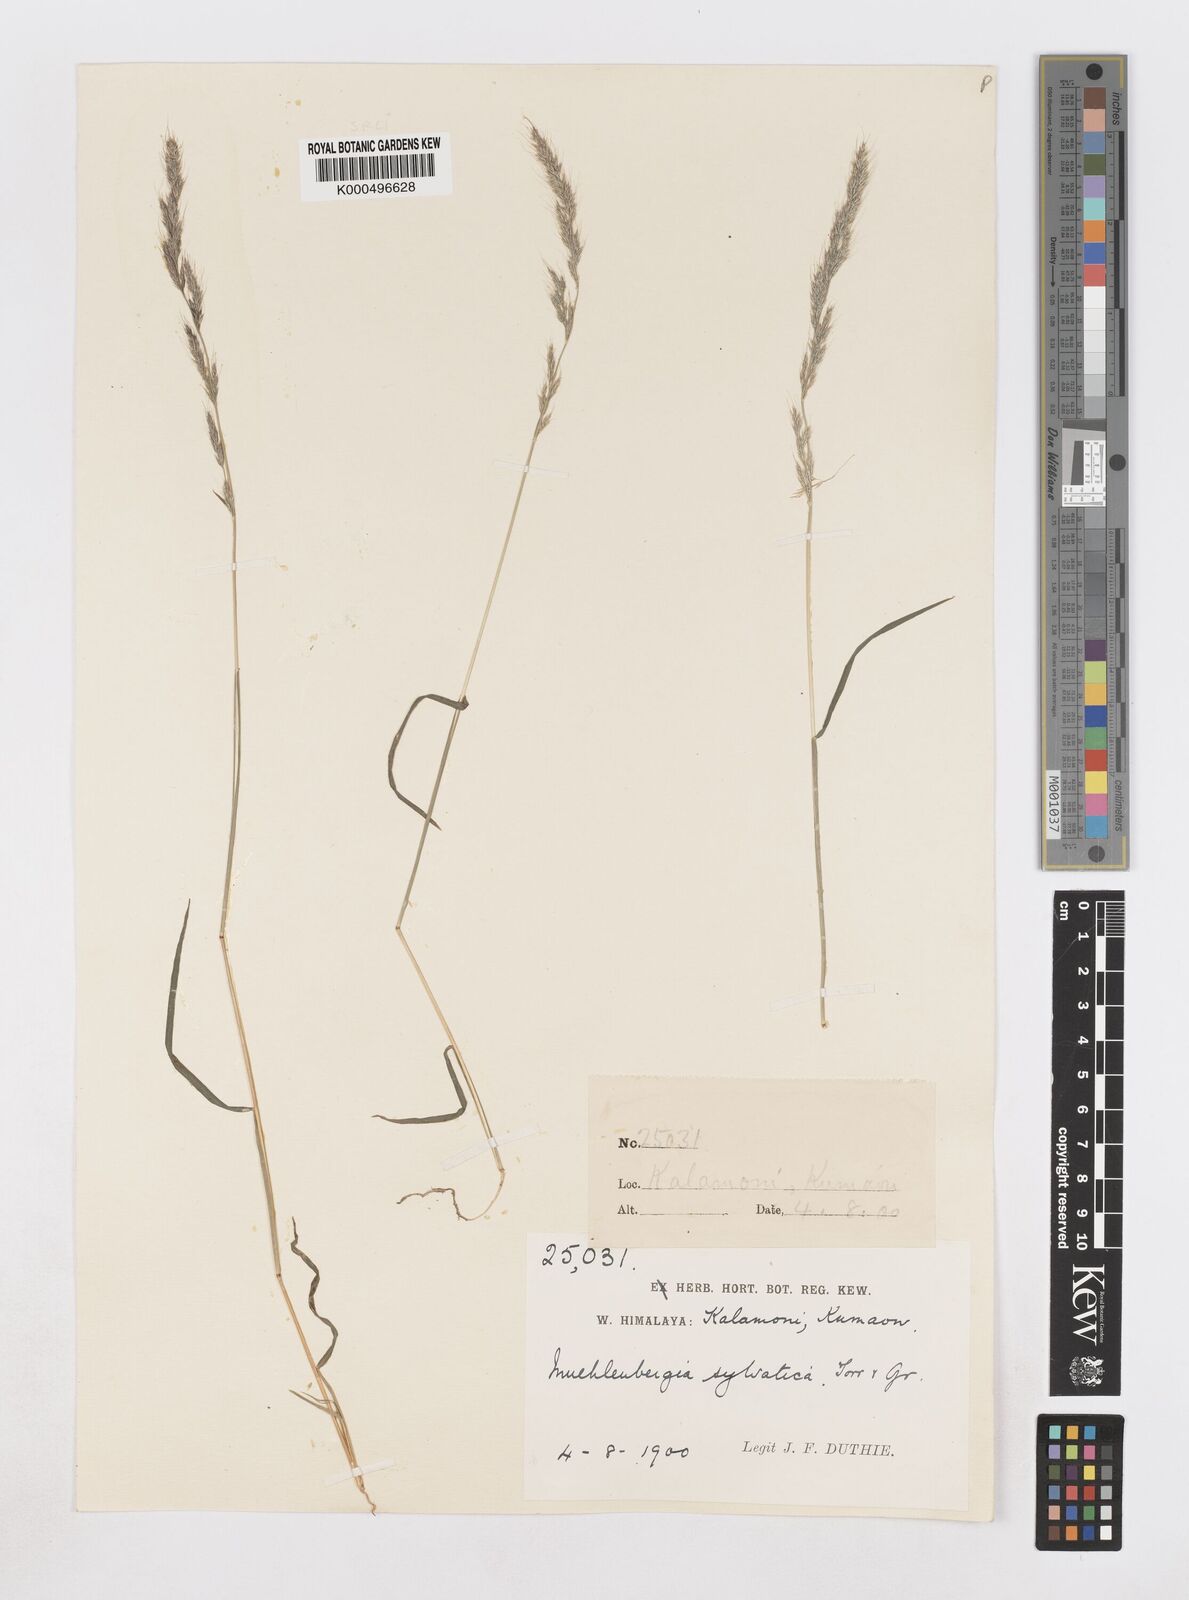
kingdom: Plantae
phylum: Tracheophyta
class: Liliopsida
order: Poales
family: Poaceae
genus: Muhlenbergia
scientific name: Muhlenbergia duthieana
